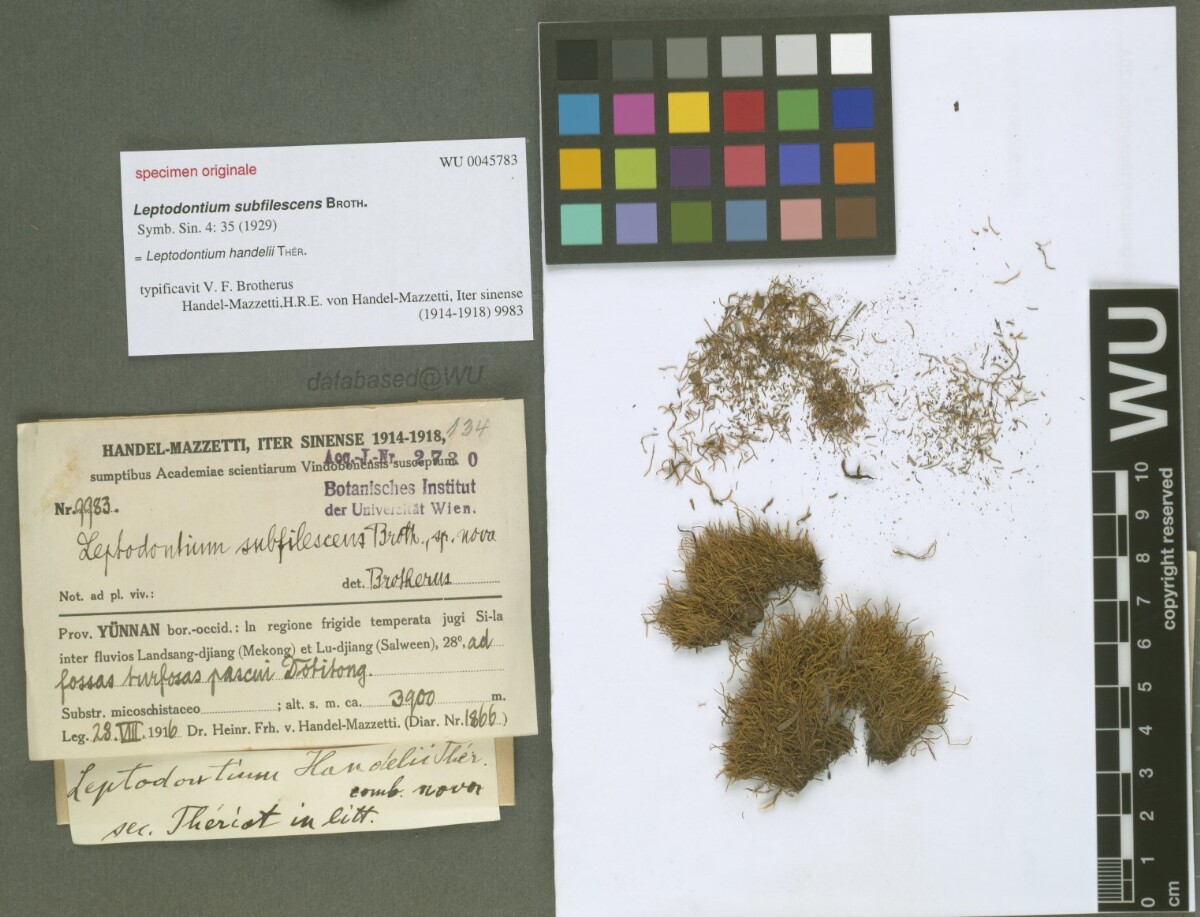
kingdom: Plantae
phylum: Bryophyta
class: Bryopsida
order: Pottiales
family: Pottiaceae
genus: Leptodontium
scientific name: Leptodontium flexifolium
